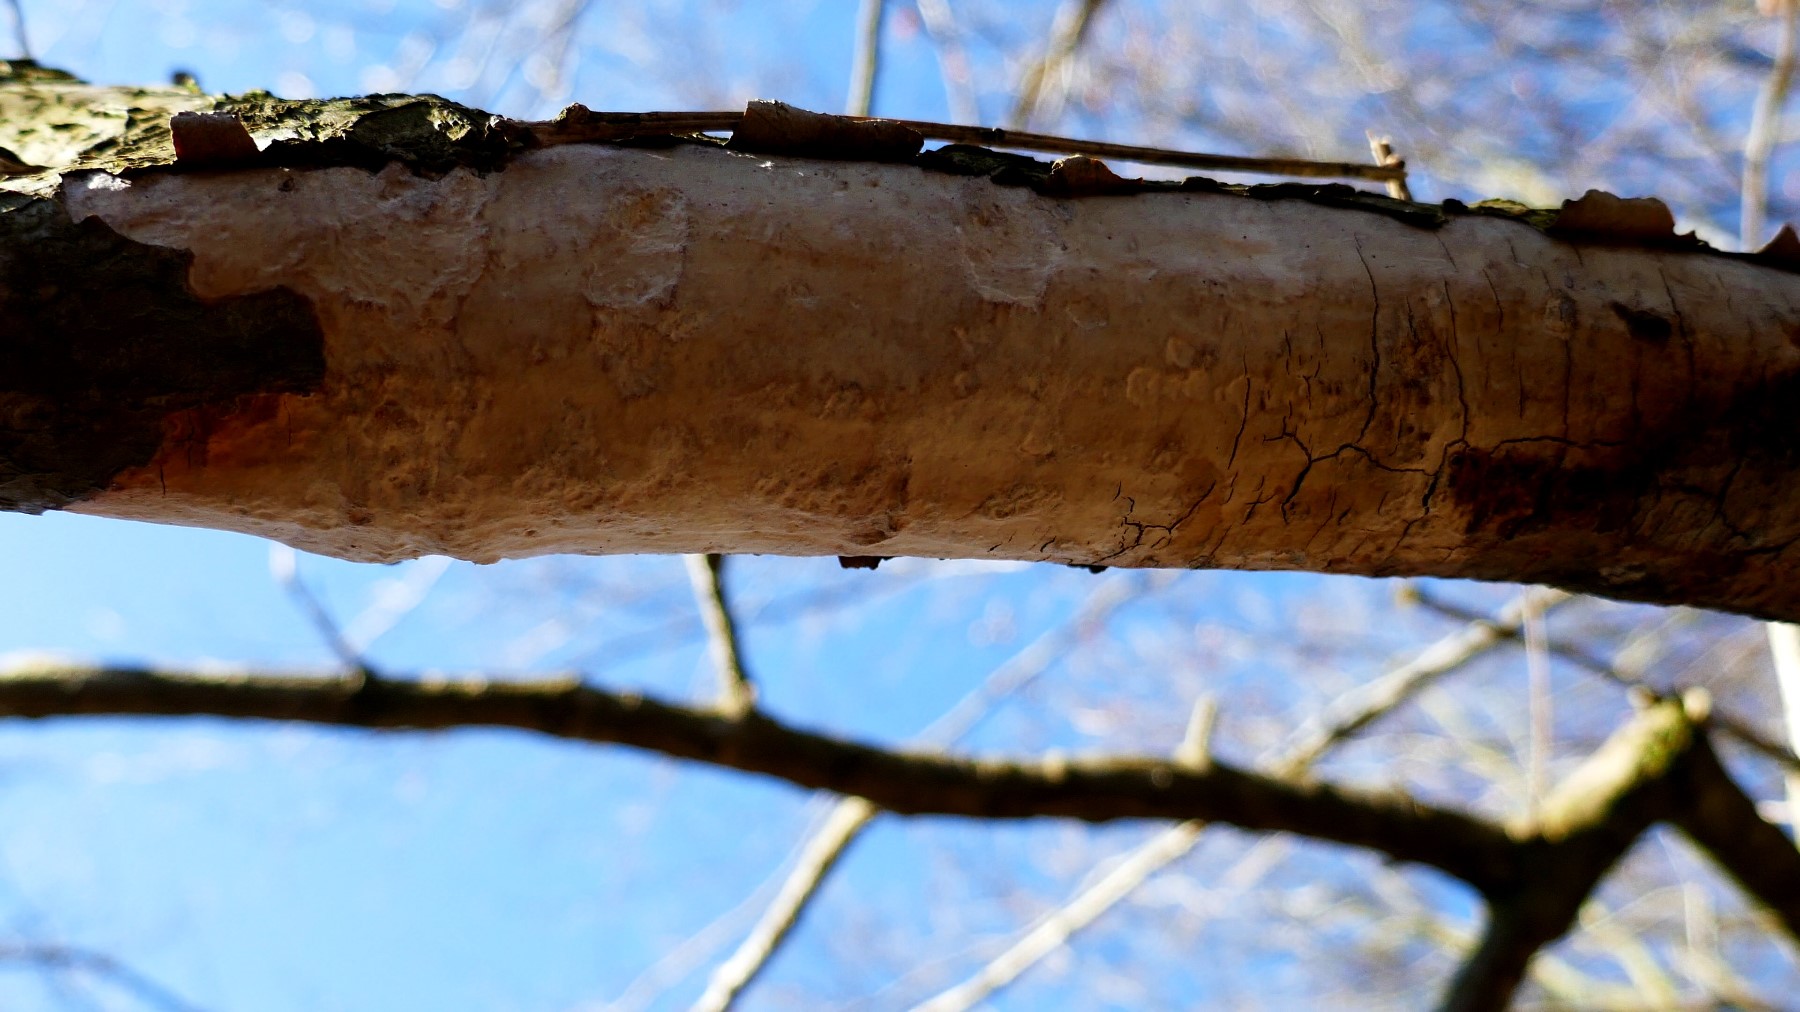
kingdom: Fungi
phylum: Basidiomycota
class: Agaricomycetes
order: Corticiales
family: Vuilleminiaceae
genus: Vuilleminia
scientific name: Vuilleminia comedens
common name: almindelig barksprænger
